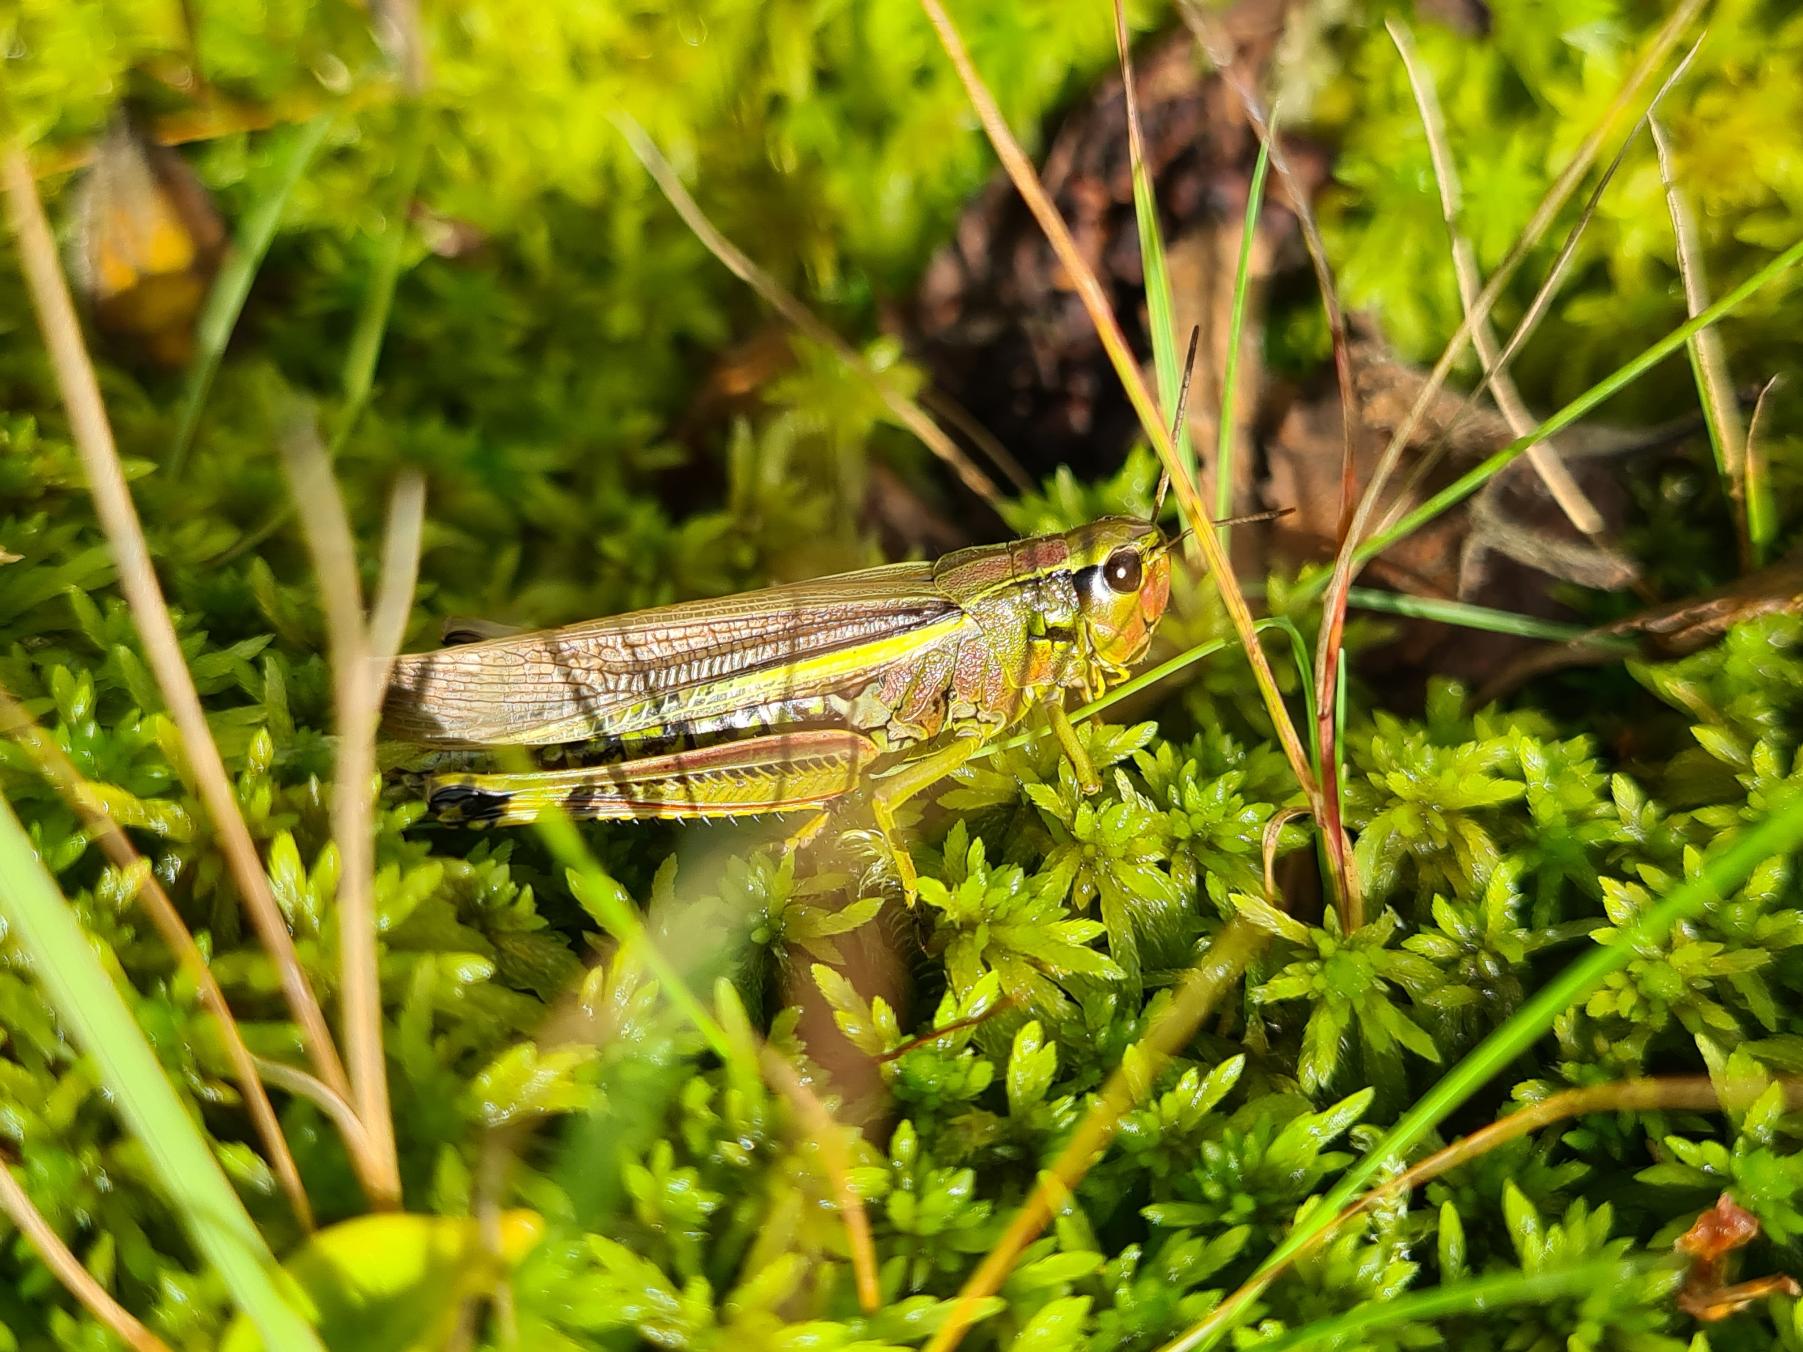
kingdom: Animalia
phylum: Arthropoda
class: Insecta
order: Orthoptera
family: Acrididae
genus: Stethophyma
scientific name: Stethophyma grossum
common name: Sumpgræshoppe
